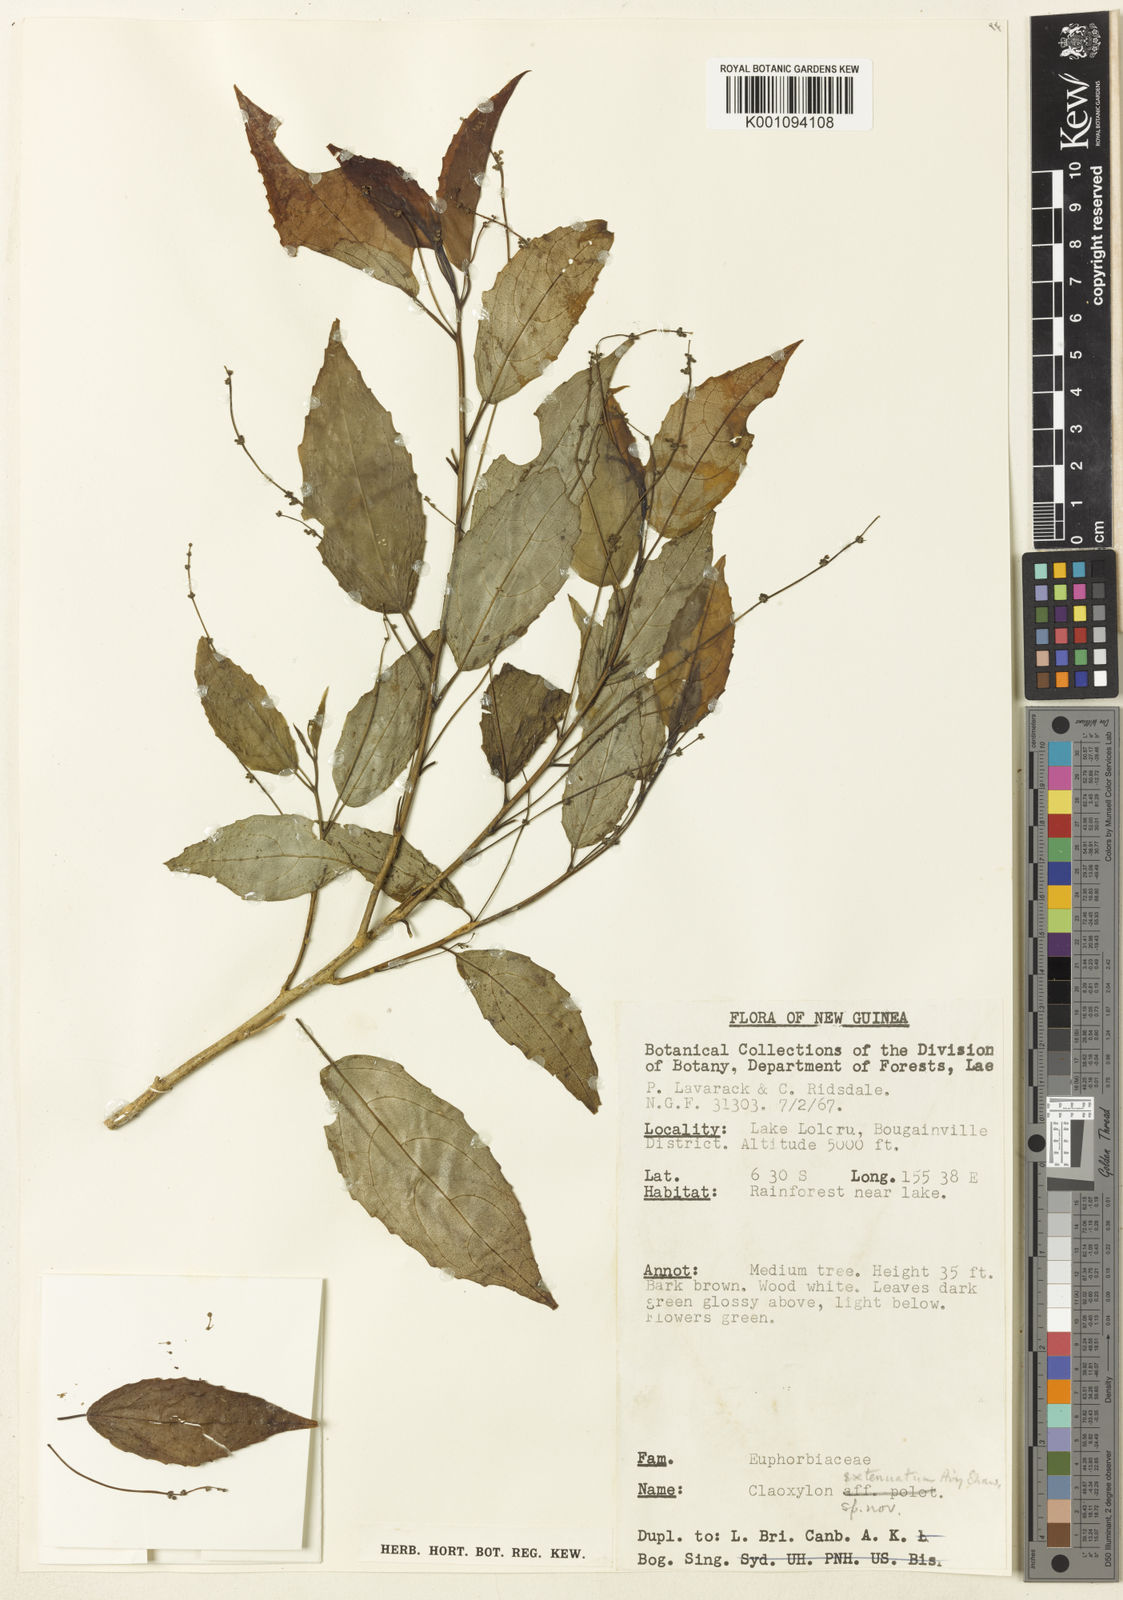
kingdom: Plantae
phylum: Tracheophyta
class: Magnoliopsida
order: Malpighiales
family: Euphorbiaceae
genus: Claoxylon
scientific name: Claoxylon extenuatum
